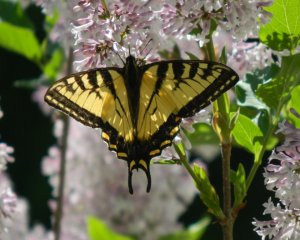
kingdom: Animalia
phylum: Arthropoda
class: Insecta
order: Lepidoptera
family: Papilionidae
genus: Pterourus
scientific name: Pterourus canadensis
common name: Canadian Tiger Swallowtail
